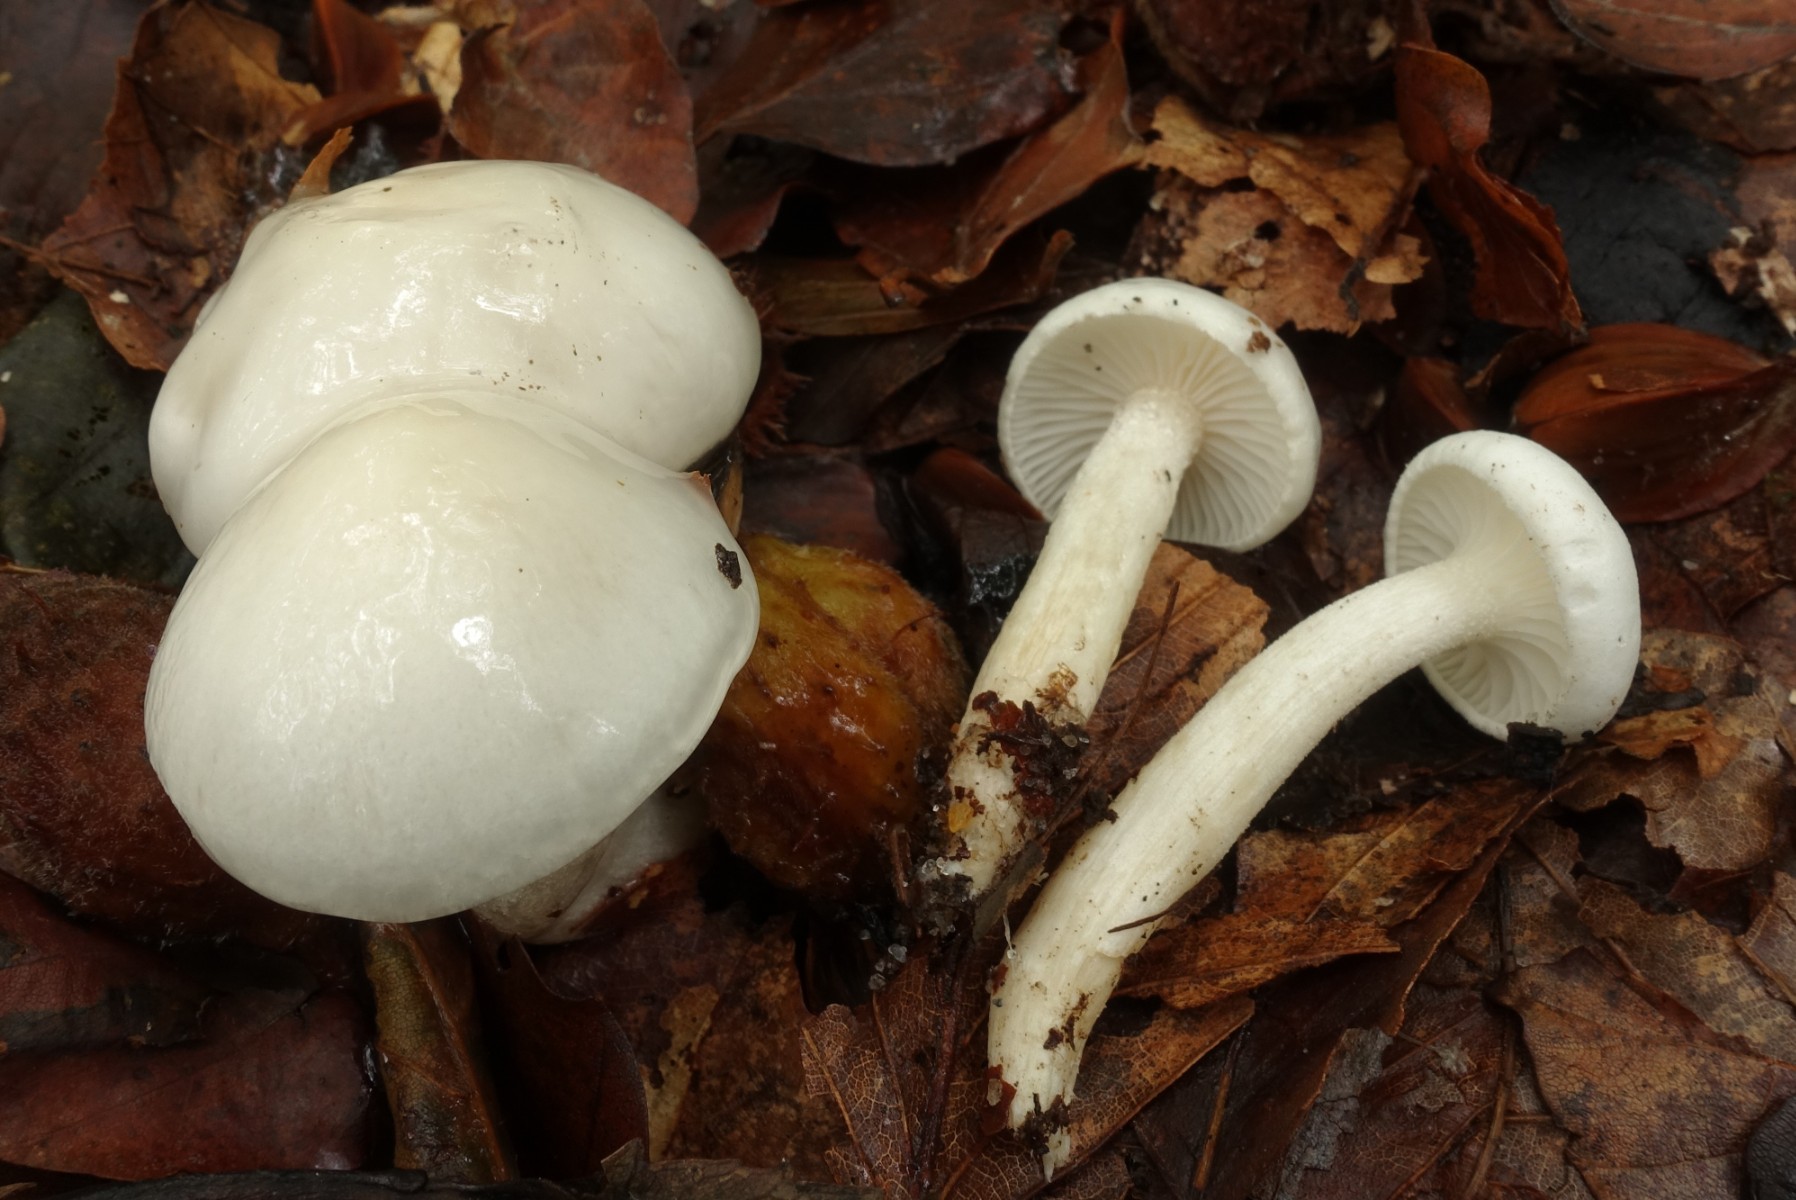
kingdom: Fungi
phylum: Basidiomycota
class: Agaricomycetes
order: Agaricales
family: Hygrophoraceae
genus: Hygrophorus
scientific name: Hygrophorus eburneus
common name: elfenbens-sneglehat
